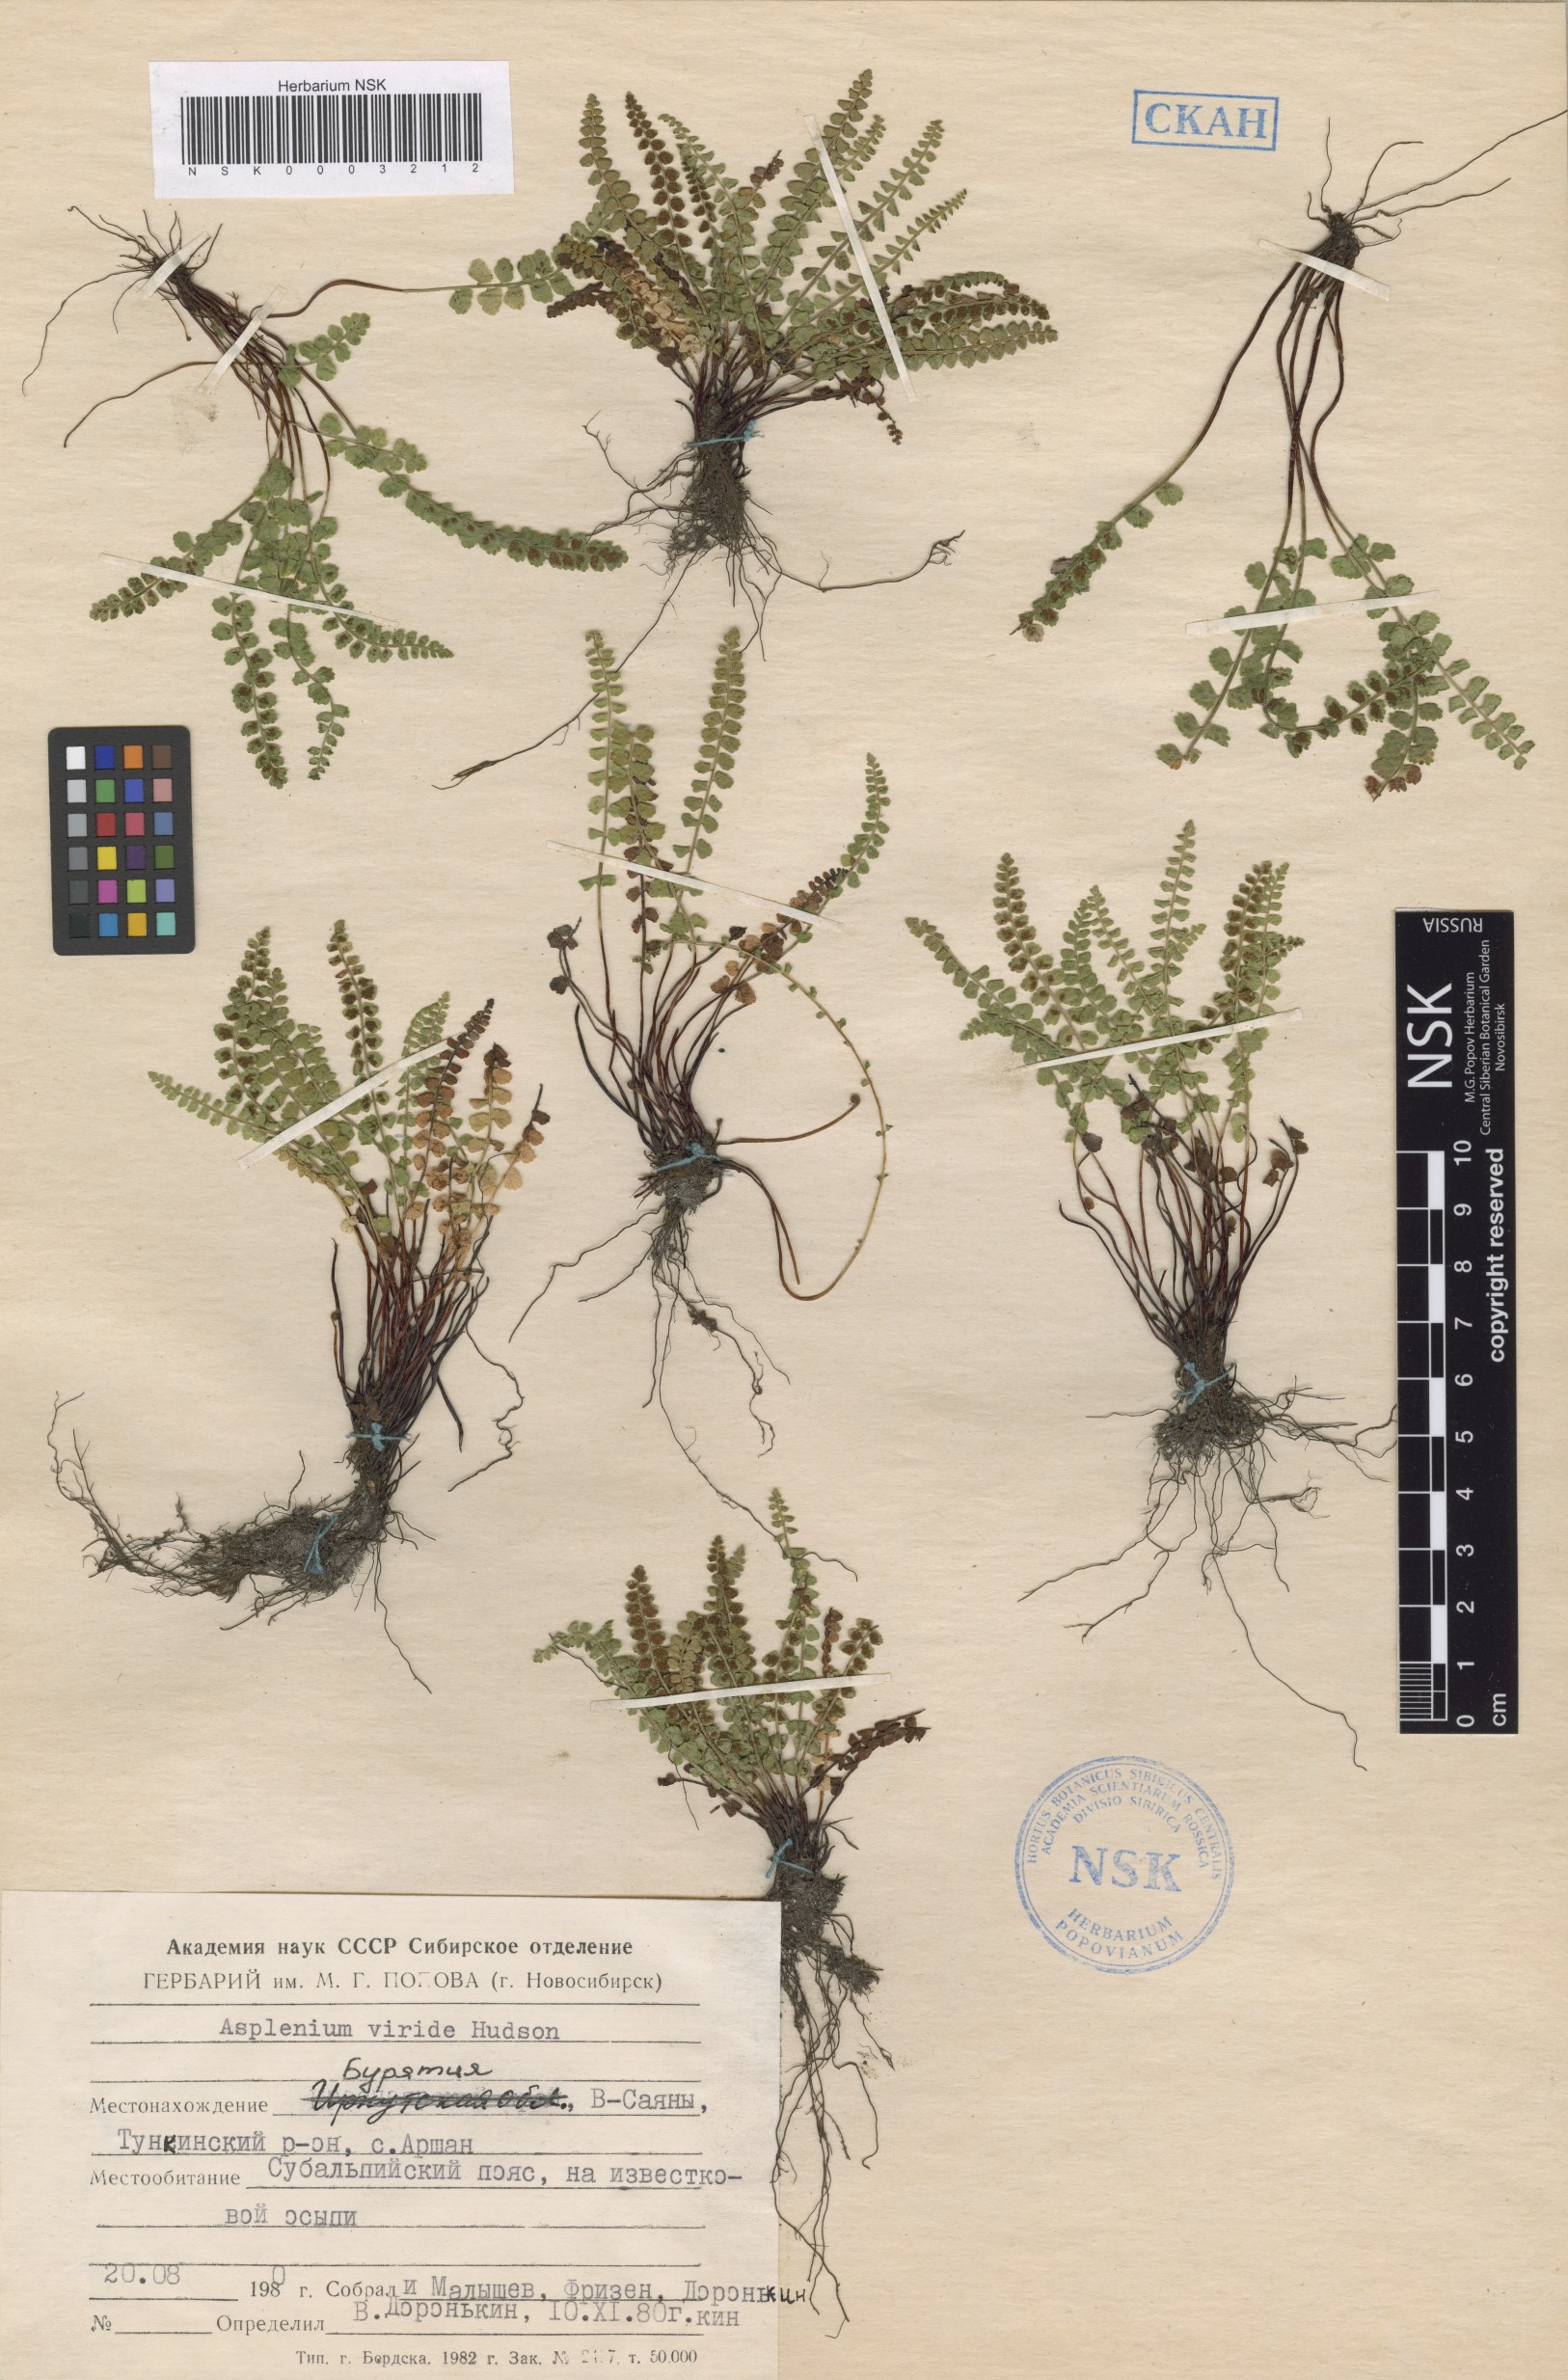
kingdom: Plantae
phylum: Tracheophyta
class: Polypodiopsida
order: Polypodiales
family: Aspleniaceae
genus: Asplenium
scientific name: Asplenium viride
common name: Green spleenwort
